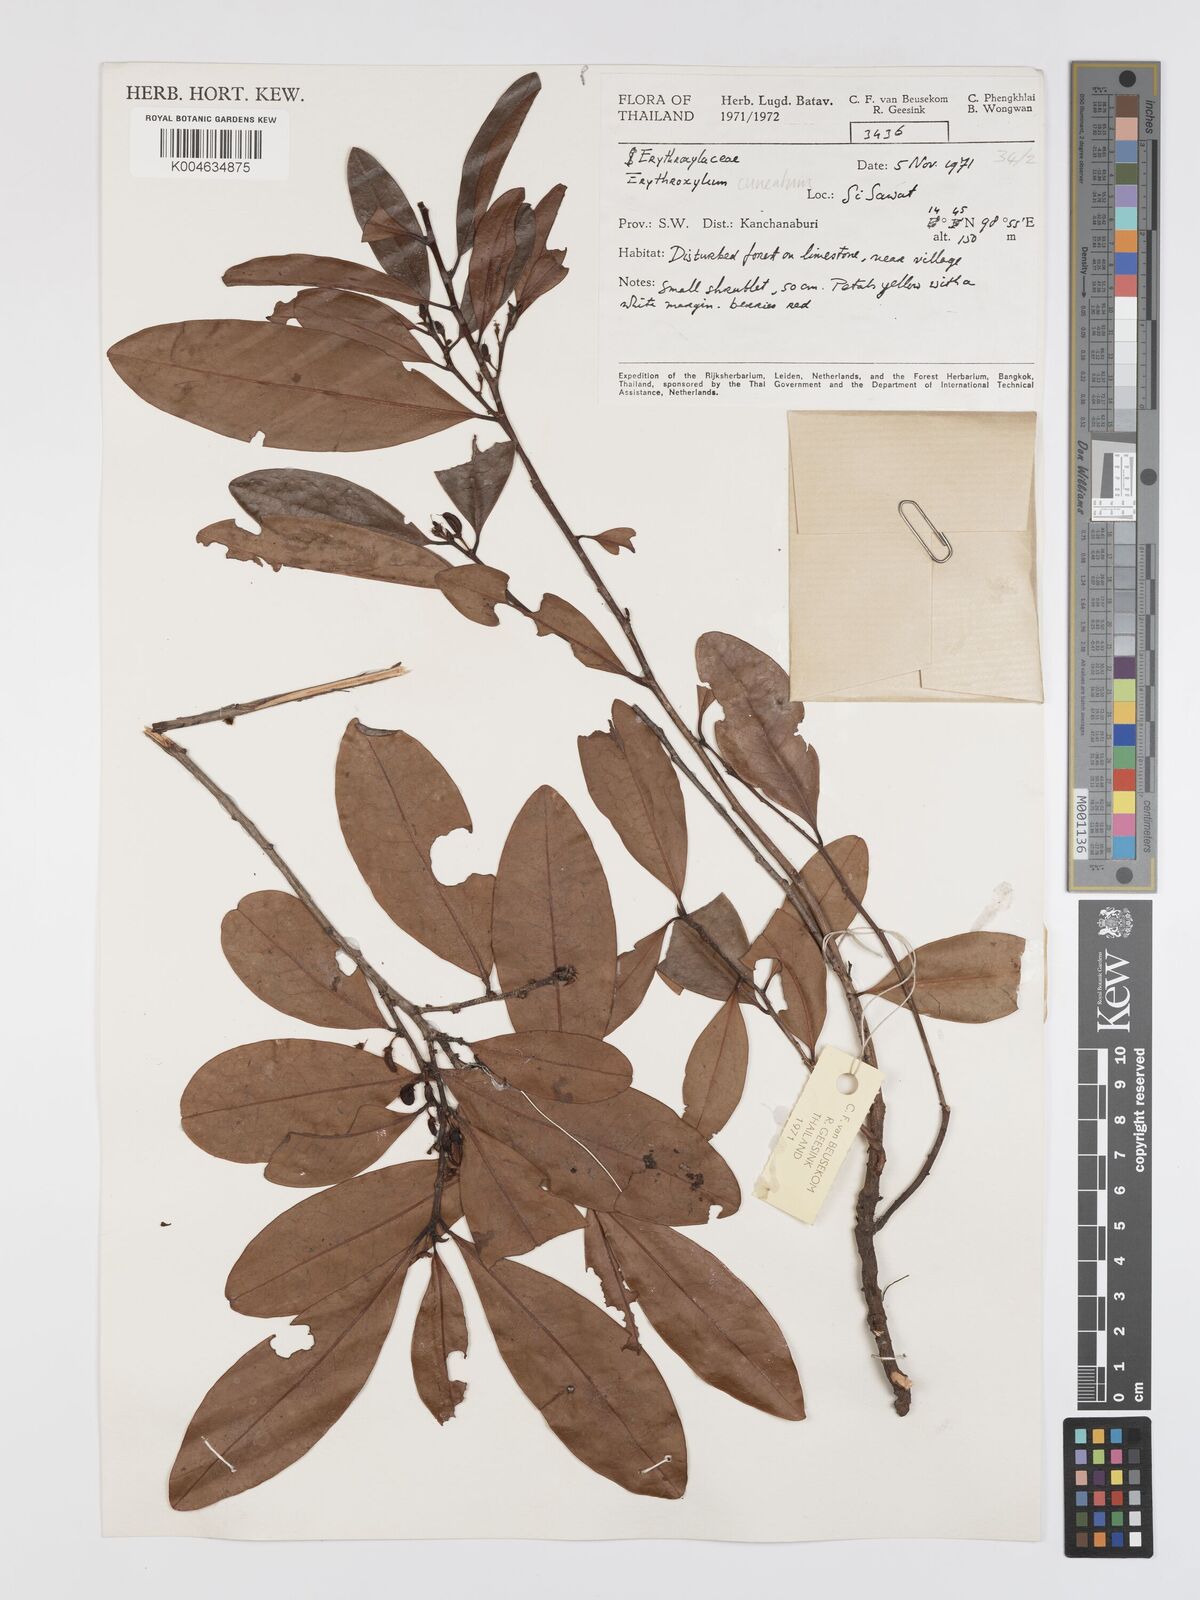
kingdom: Plantae
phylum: Tracheophyta
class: Magnoliopsida
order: Malpighiales
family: Erythroxylaceae
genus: Erythroxylum
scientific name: Erythroxylum
